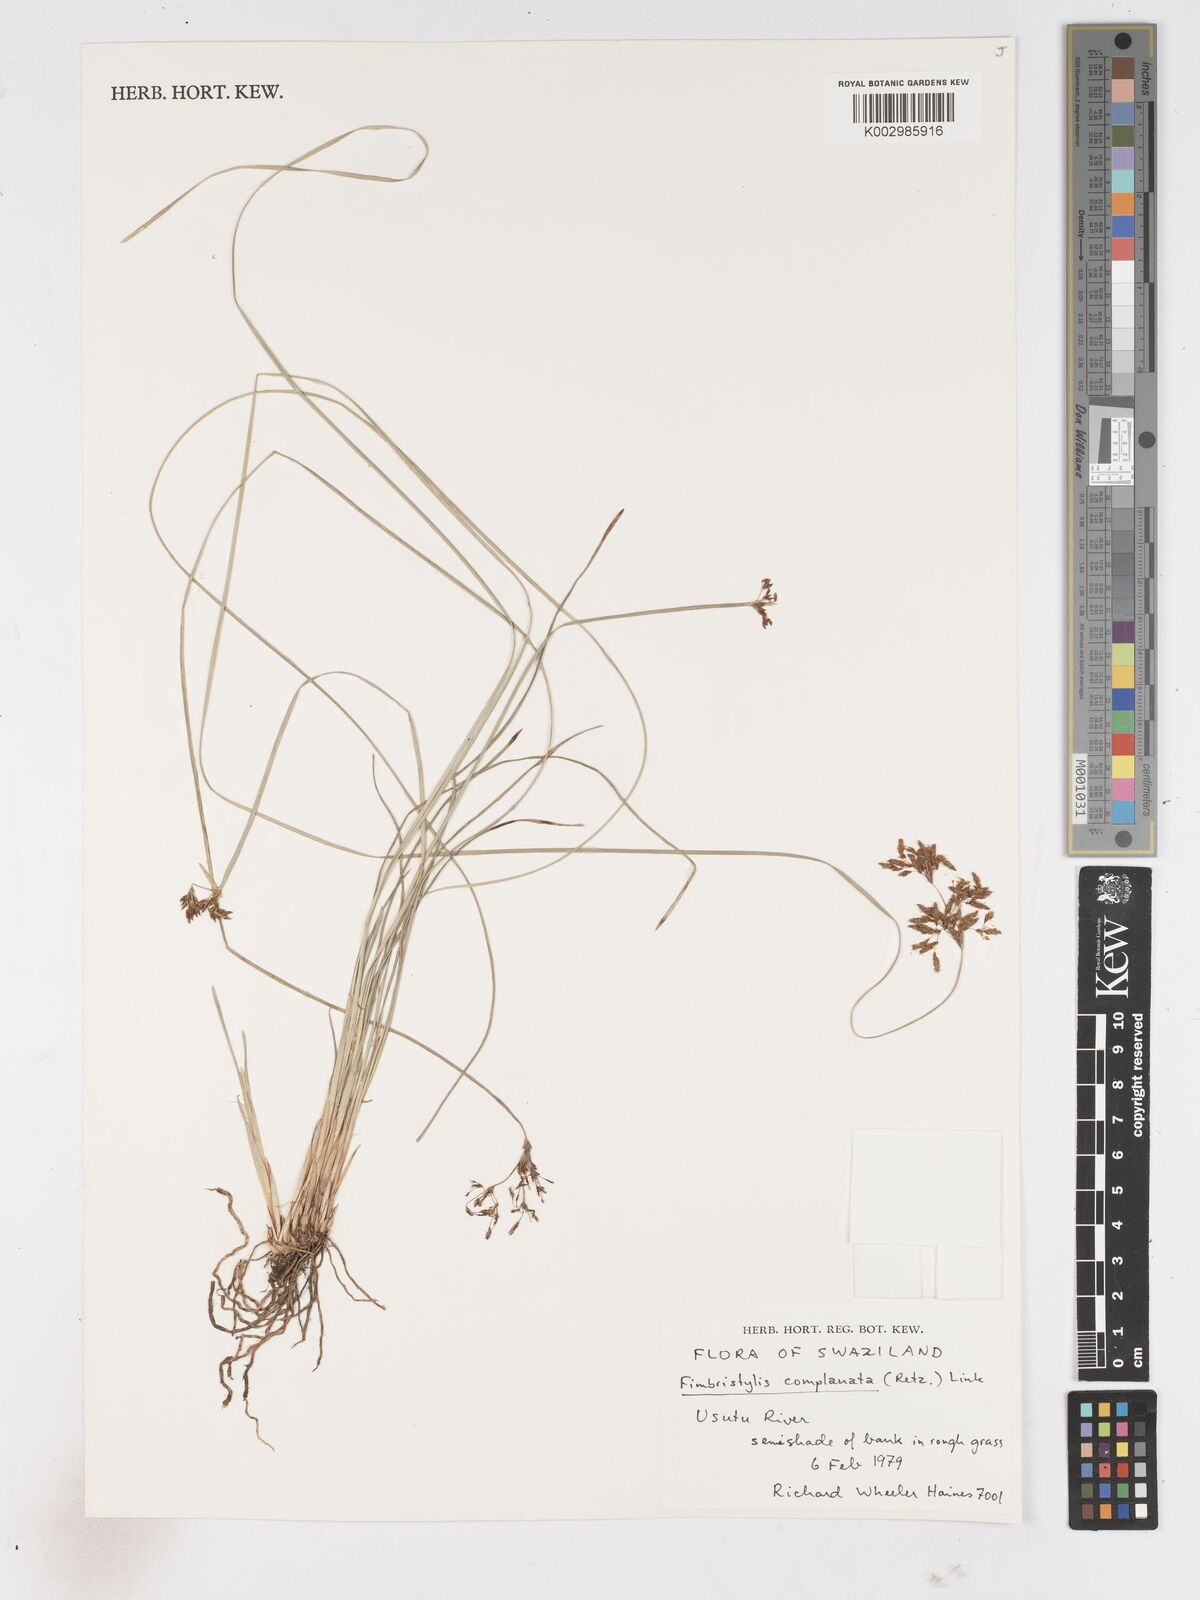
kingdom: Plantae
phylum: Tracheophyta
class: Liliopsida
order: Poales
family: Cyperaceae
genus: Fimbristylis
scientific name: Fimbristylis complanata
